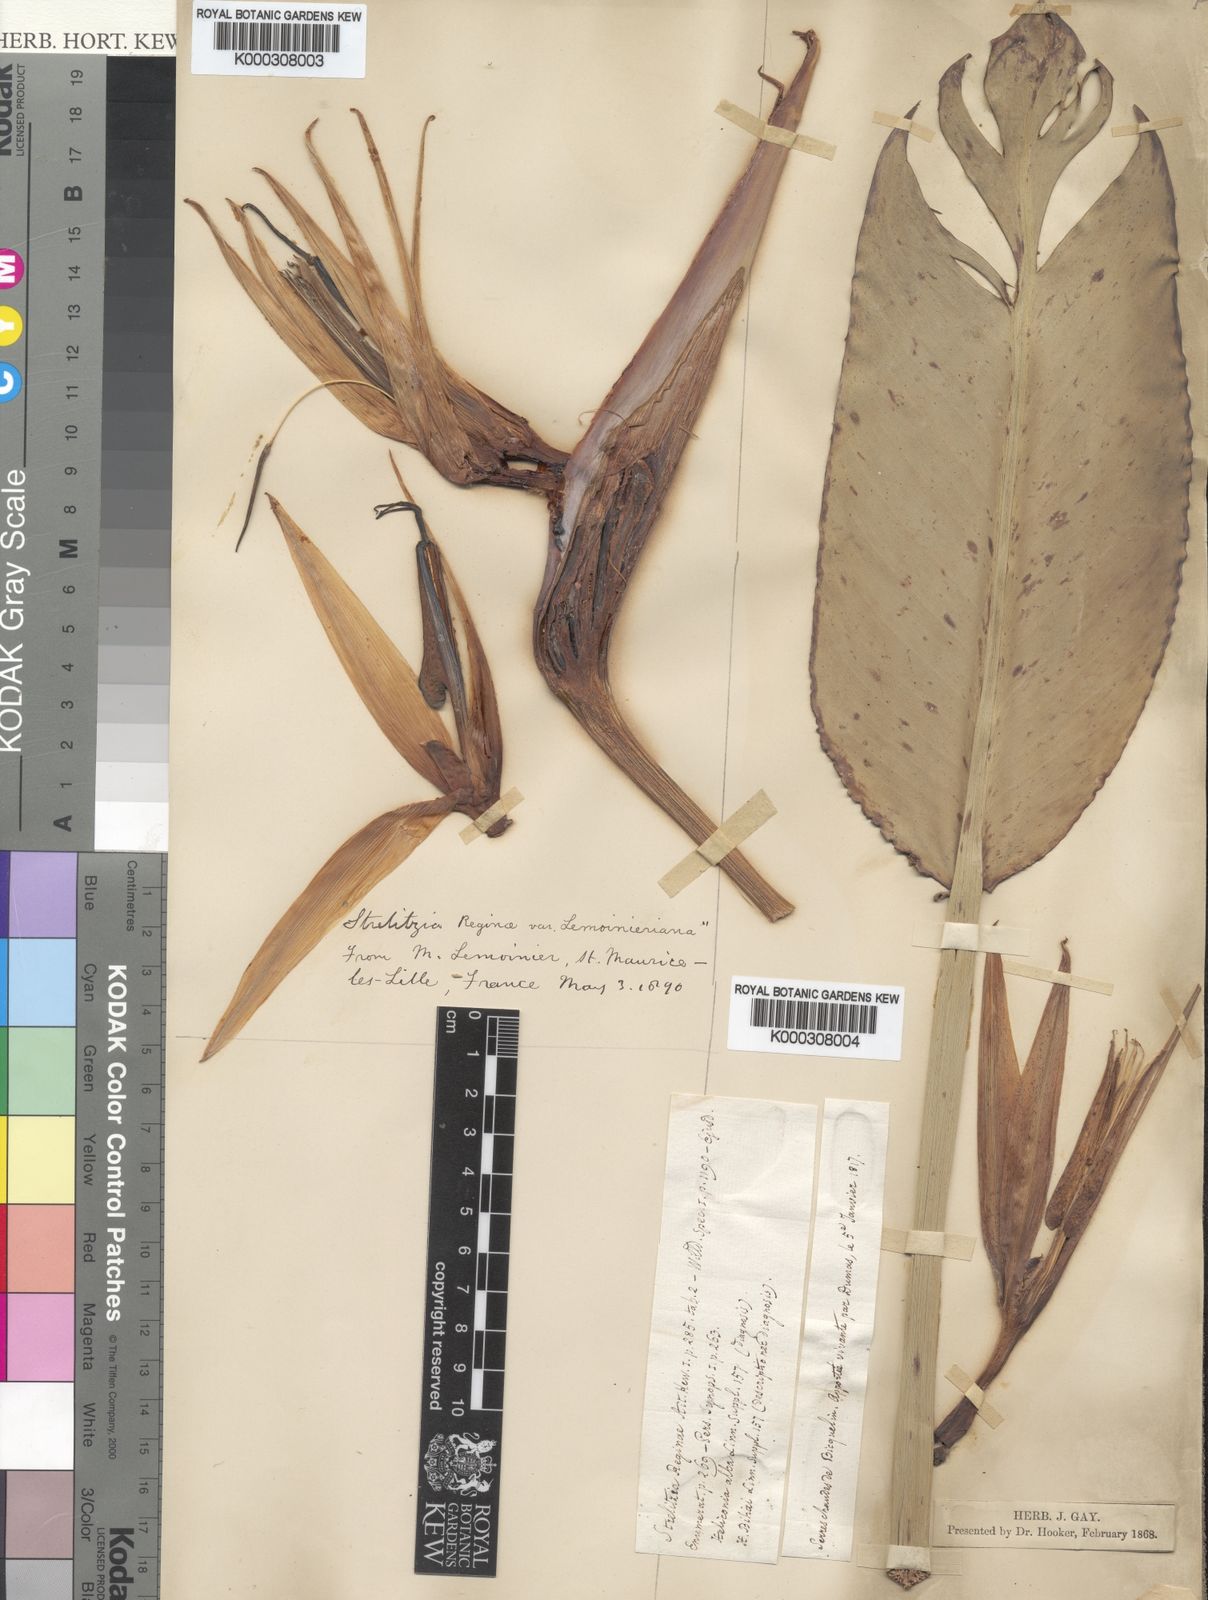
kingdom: Plantae
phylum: Tracheophyta
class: Liliopsida
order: Zingiberales
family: Strelitziaceae
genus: Strelitzia
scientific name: Strelitzia
